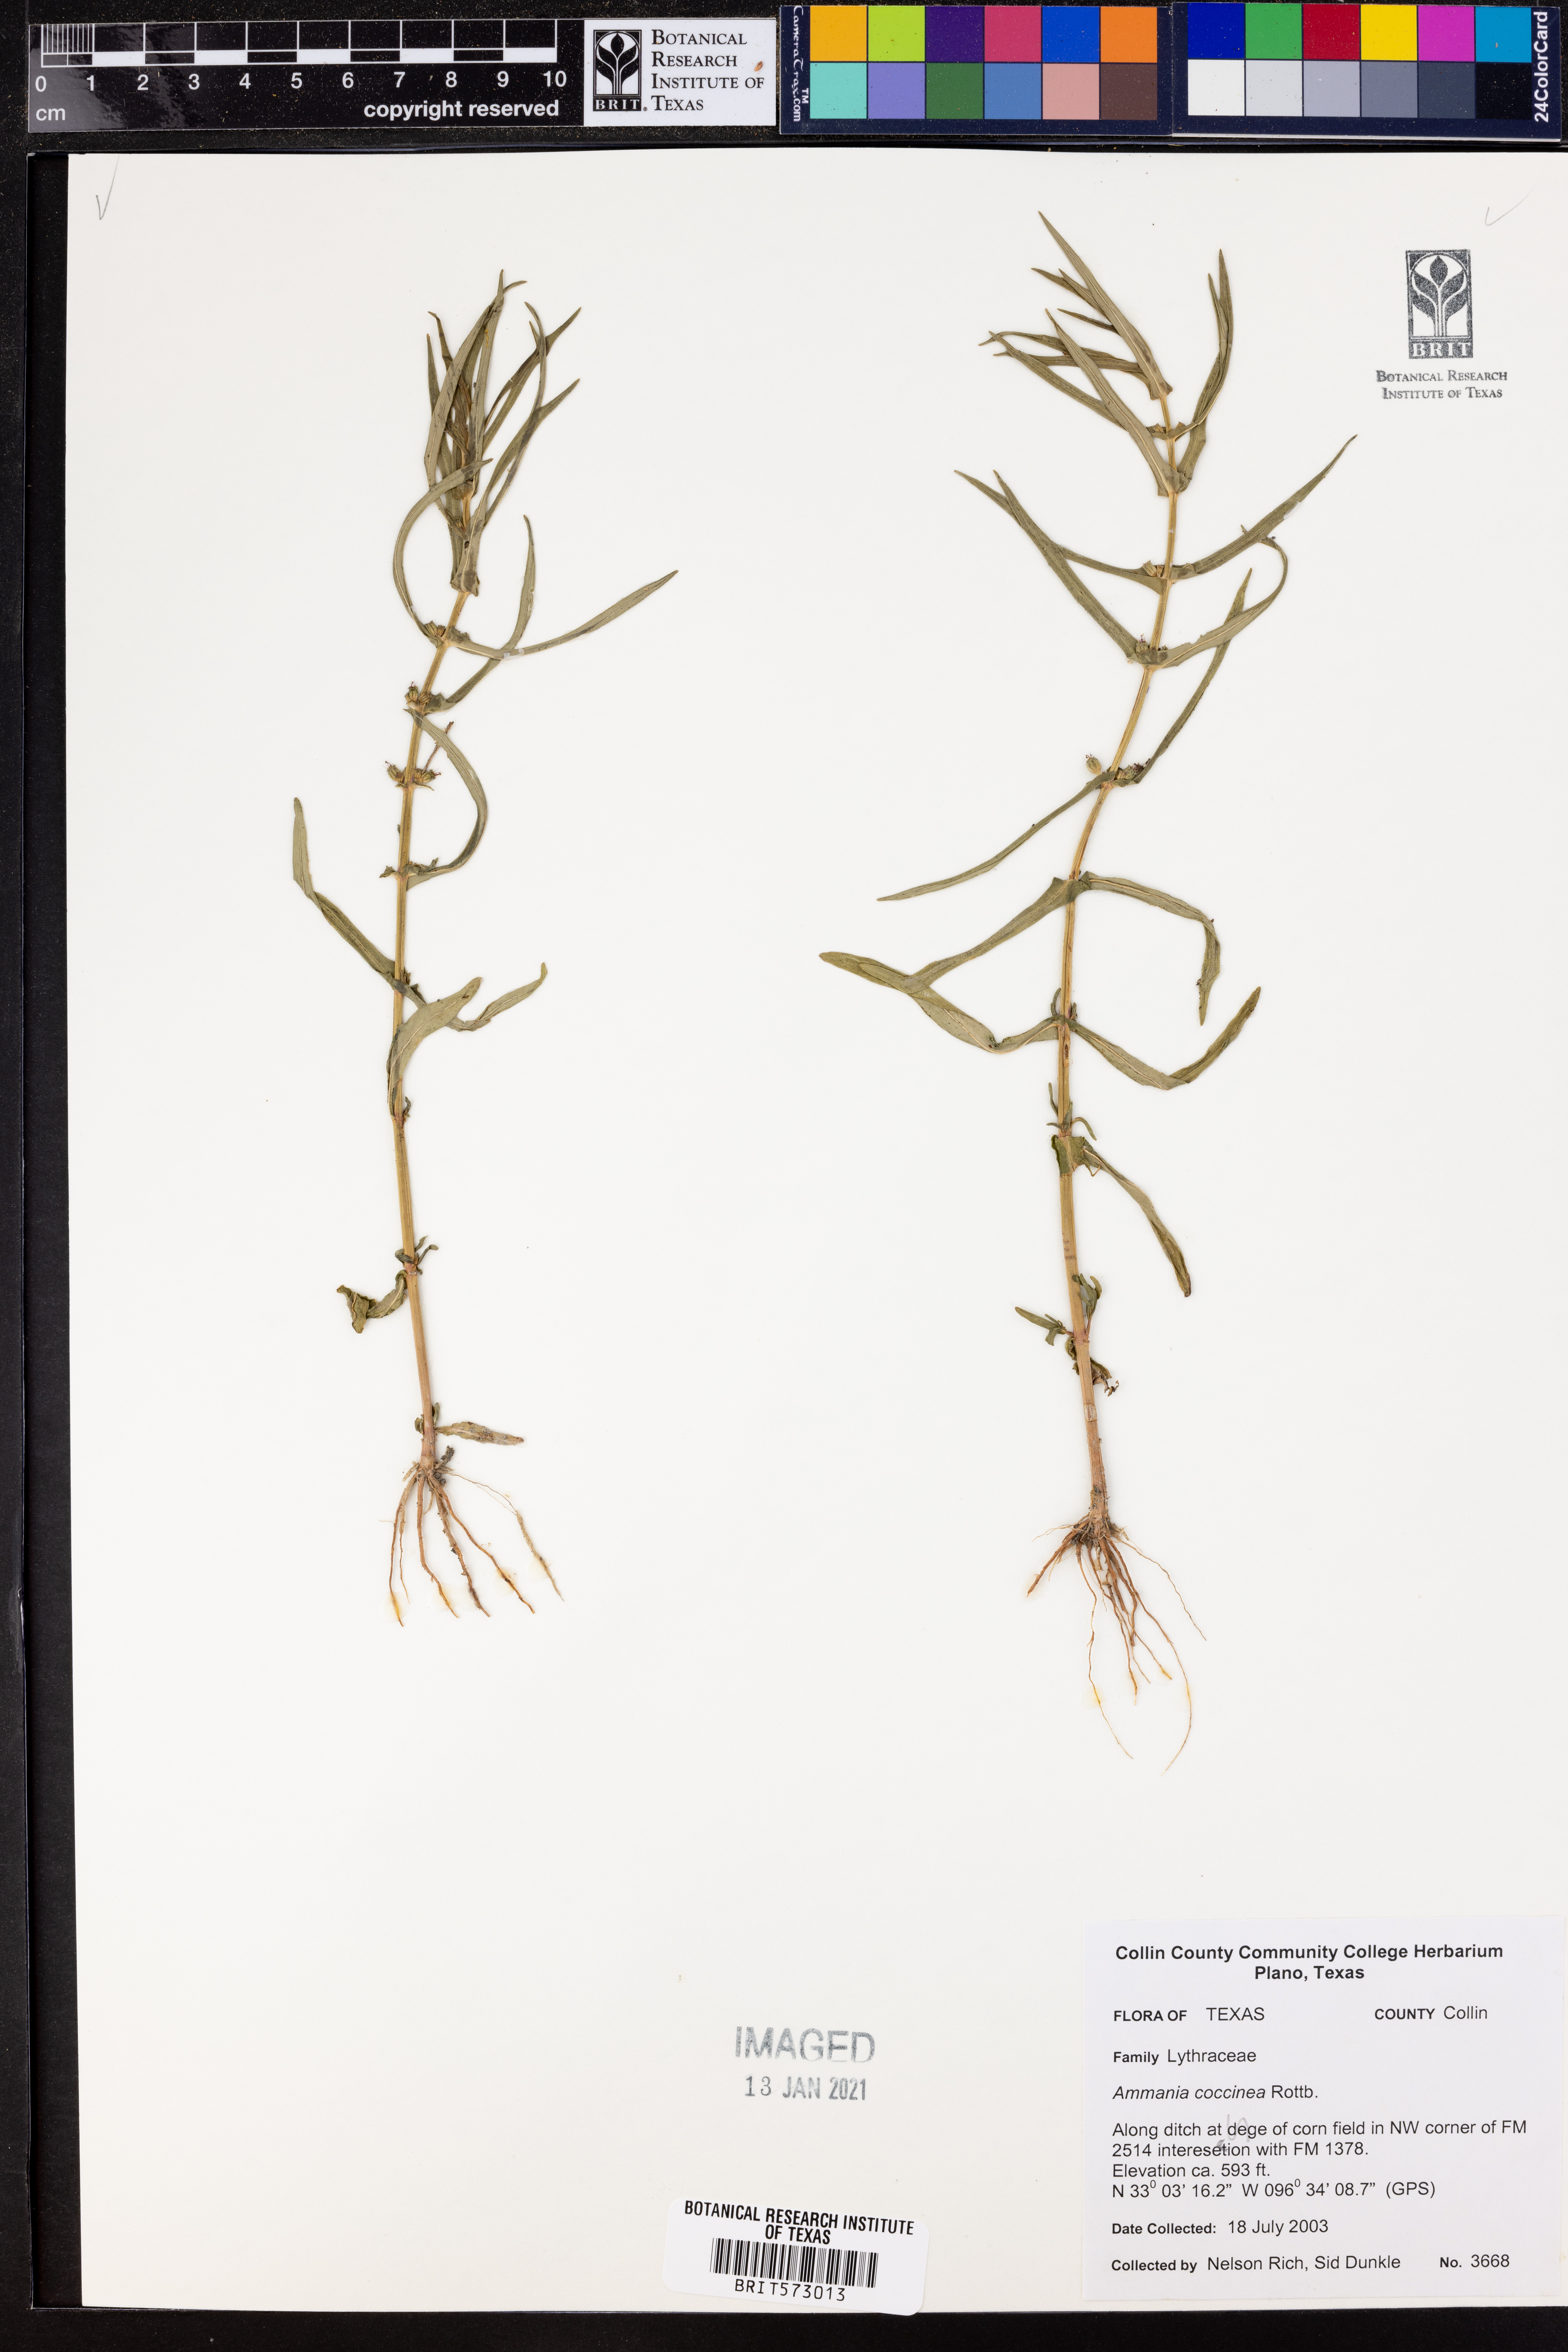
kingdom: Plantae
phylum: Tracheophyta
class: Magnoliopsida
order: Myrtales
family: Lythraceae
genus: Ammannia
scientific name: Ammannia coccinea
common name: Valley redstem
